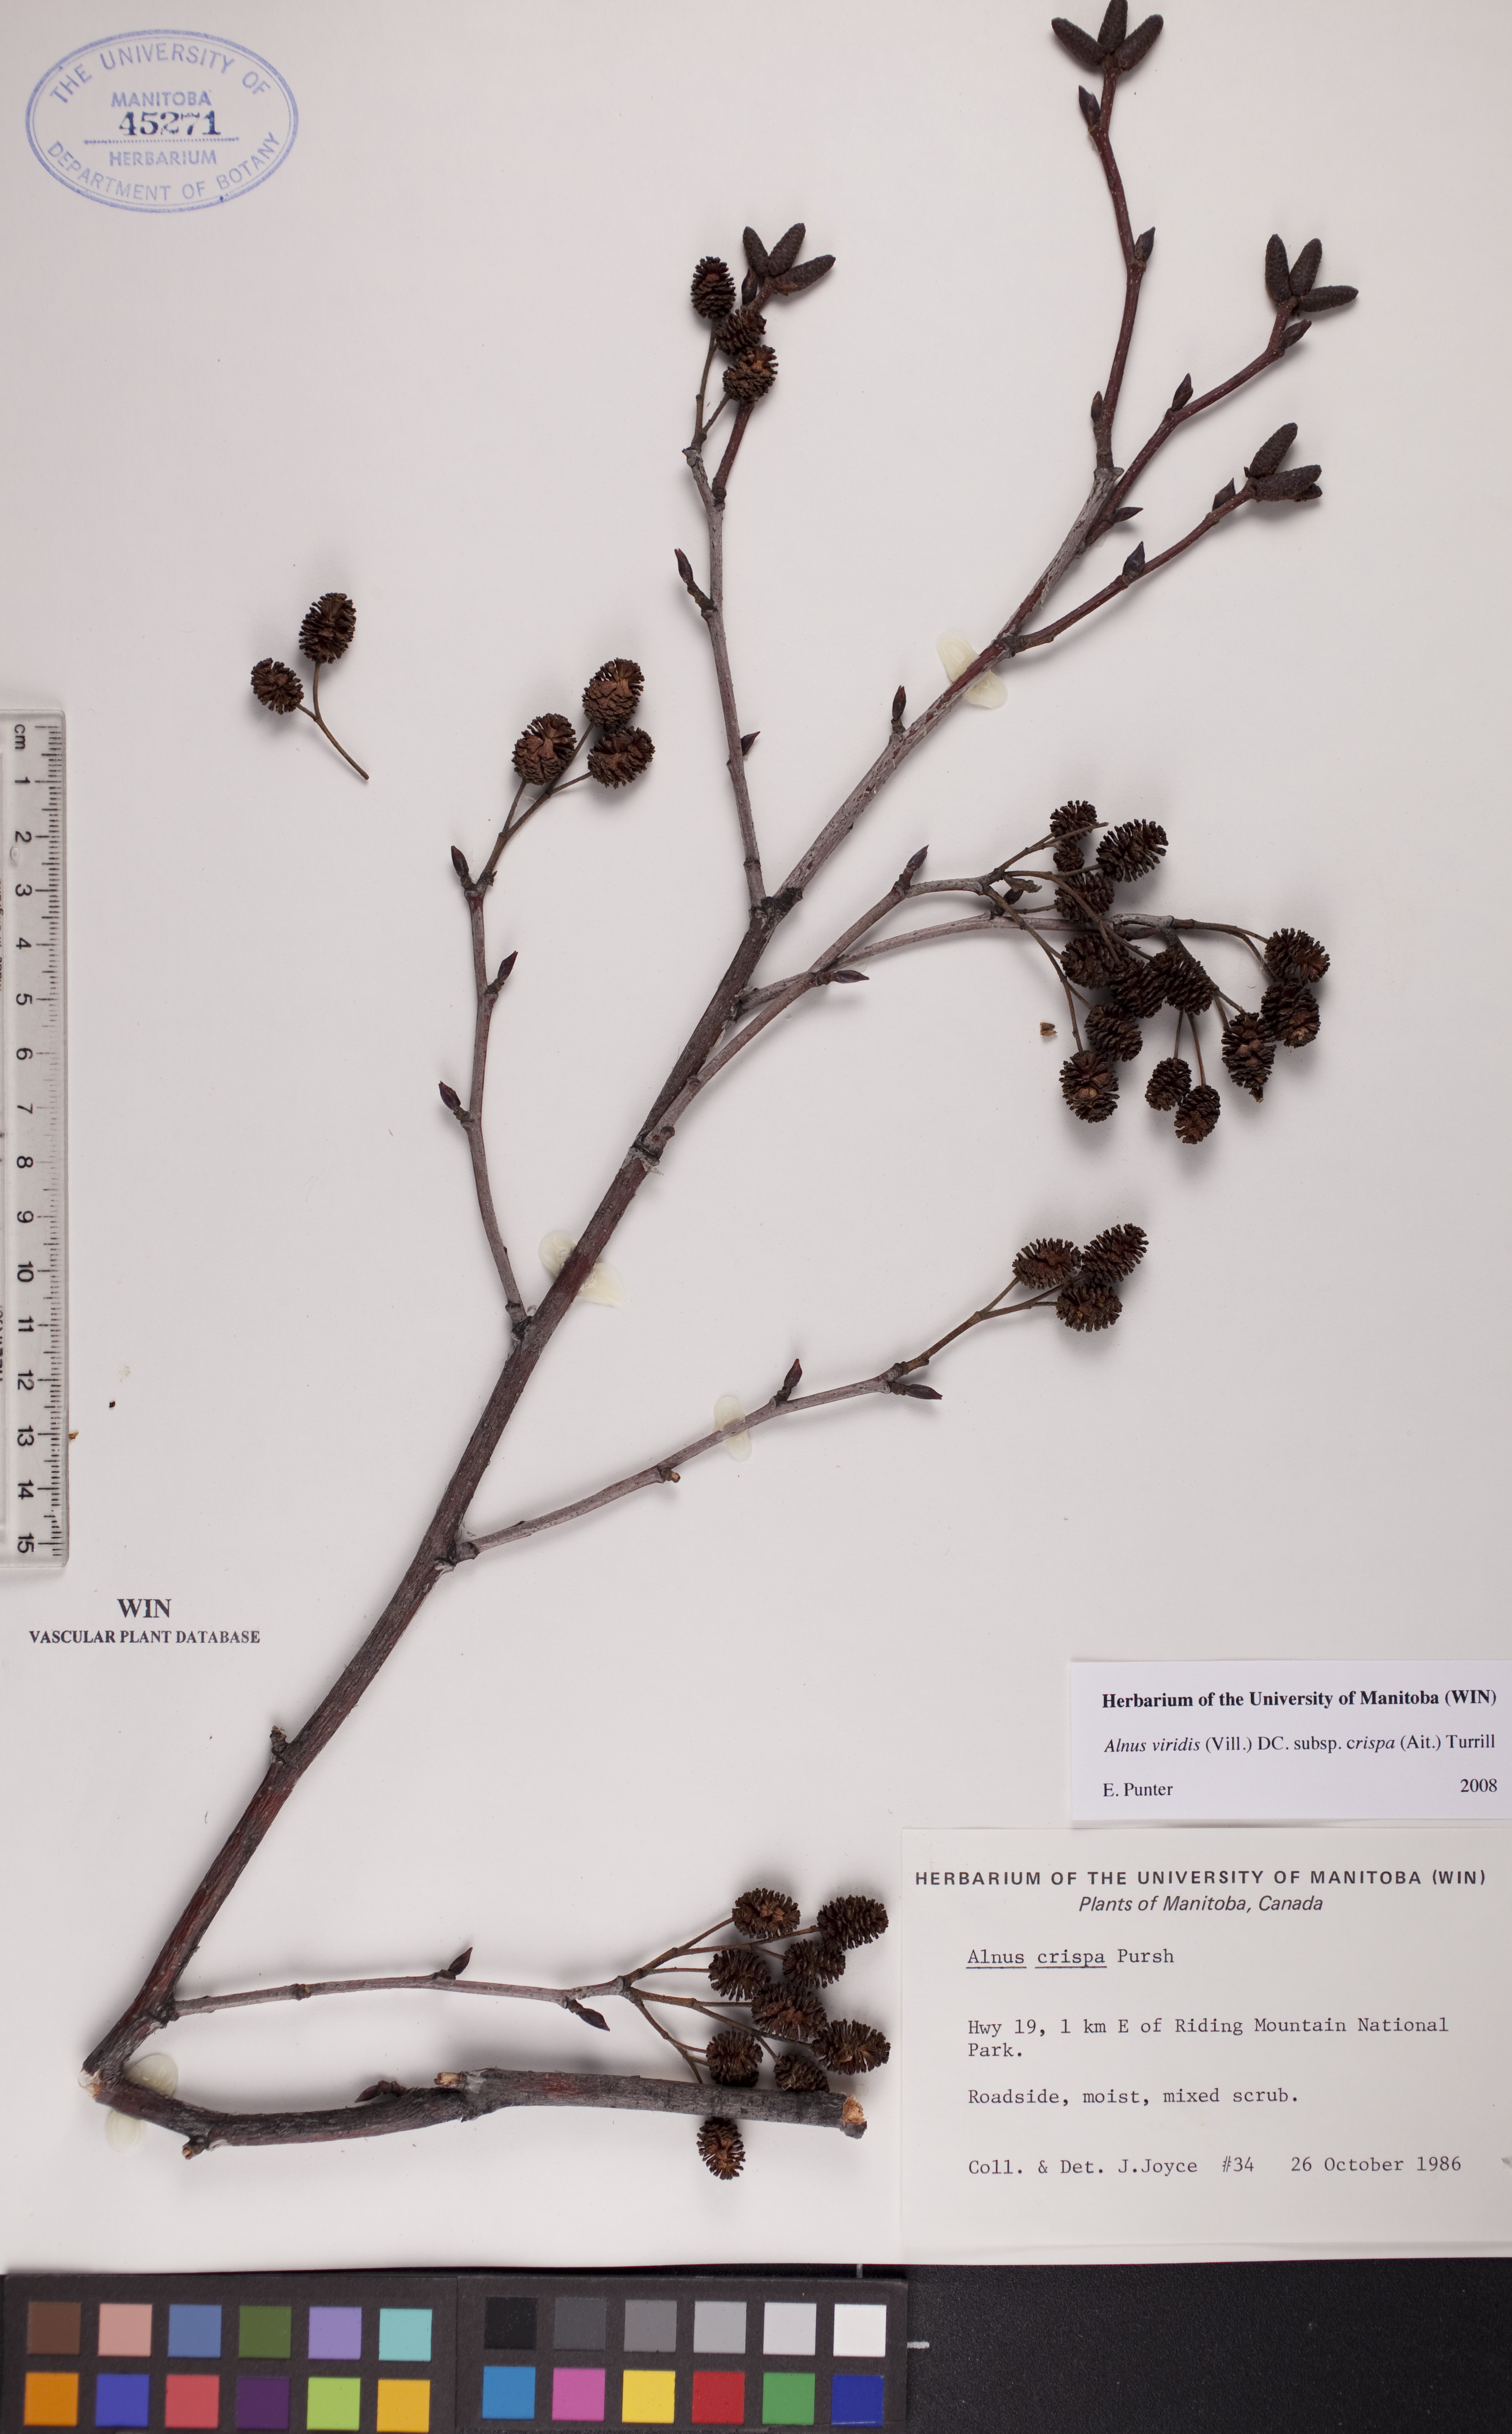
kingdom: Plantae
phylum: Tracheophyta
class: Magnoliopsida
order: Fagales
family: Betulaceae
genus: Alnus
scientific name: Alnus alnobetula
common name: Green alder
